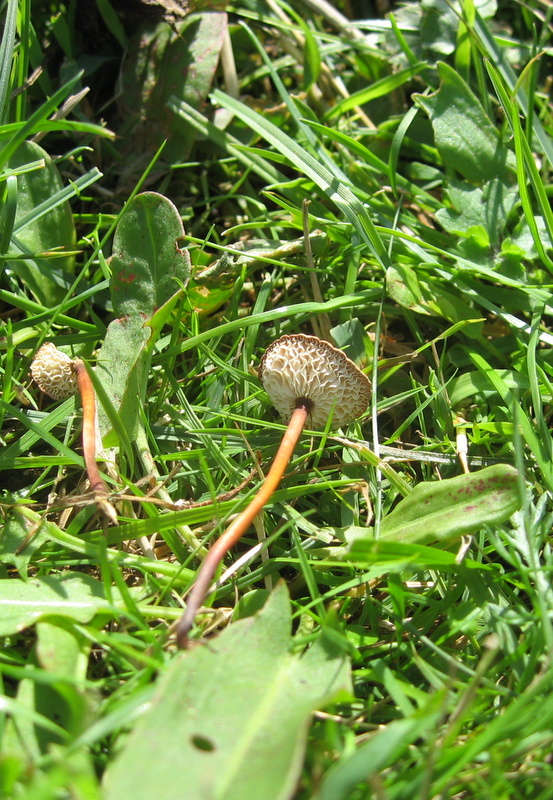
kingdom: Fungi
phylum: Basidiomycota
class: Agaricomycetes
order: Agaricales
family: Omphalotaceae
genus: Mycetinis
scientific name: Mycetinis scorodonius
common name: lille løghat
